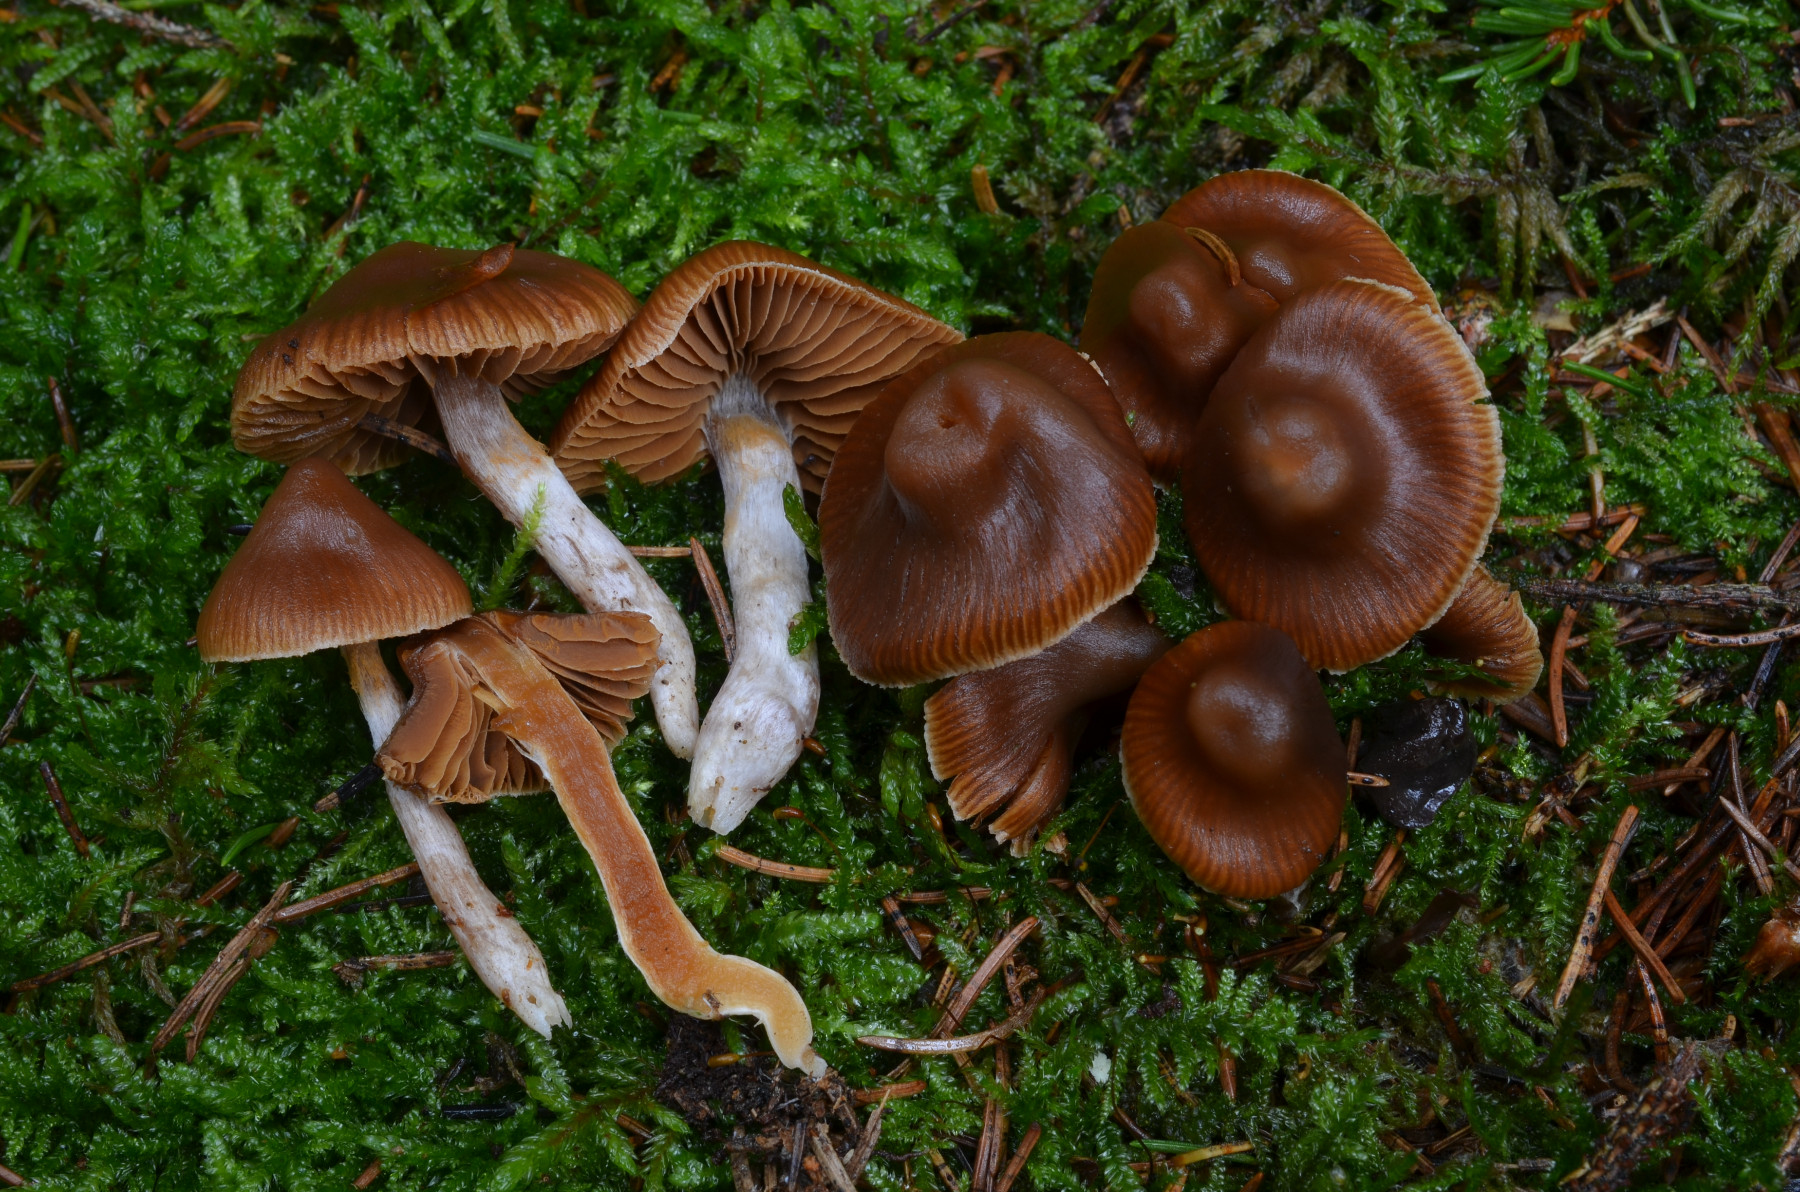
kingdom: Fungi
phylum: Basidiomycota
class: Agaricomycetes
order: Agaricales
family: Cortinariaceae
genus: Cortinarius
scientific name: Cortinarius obtusorum
